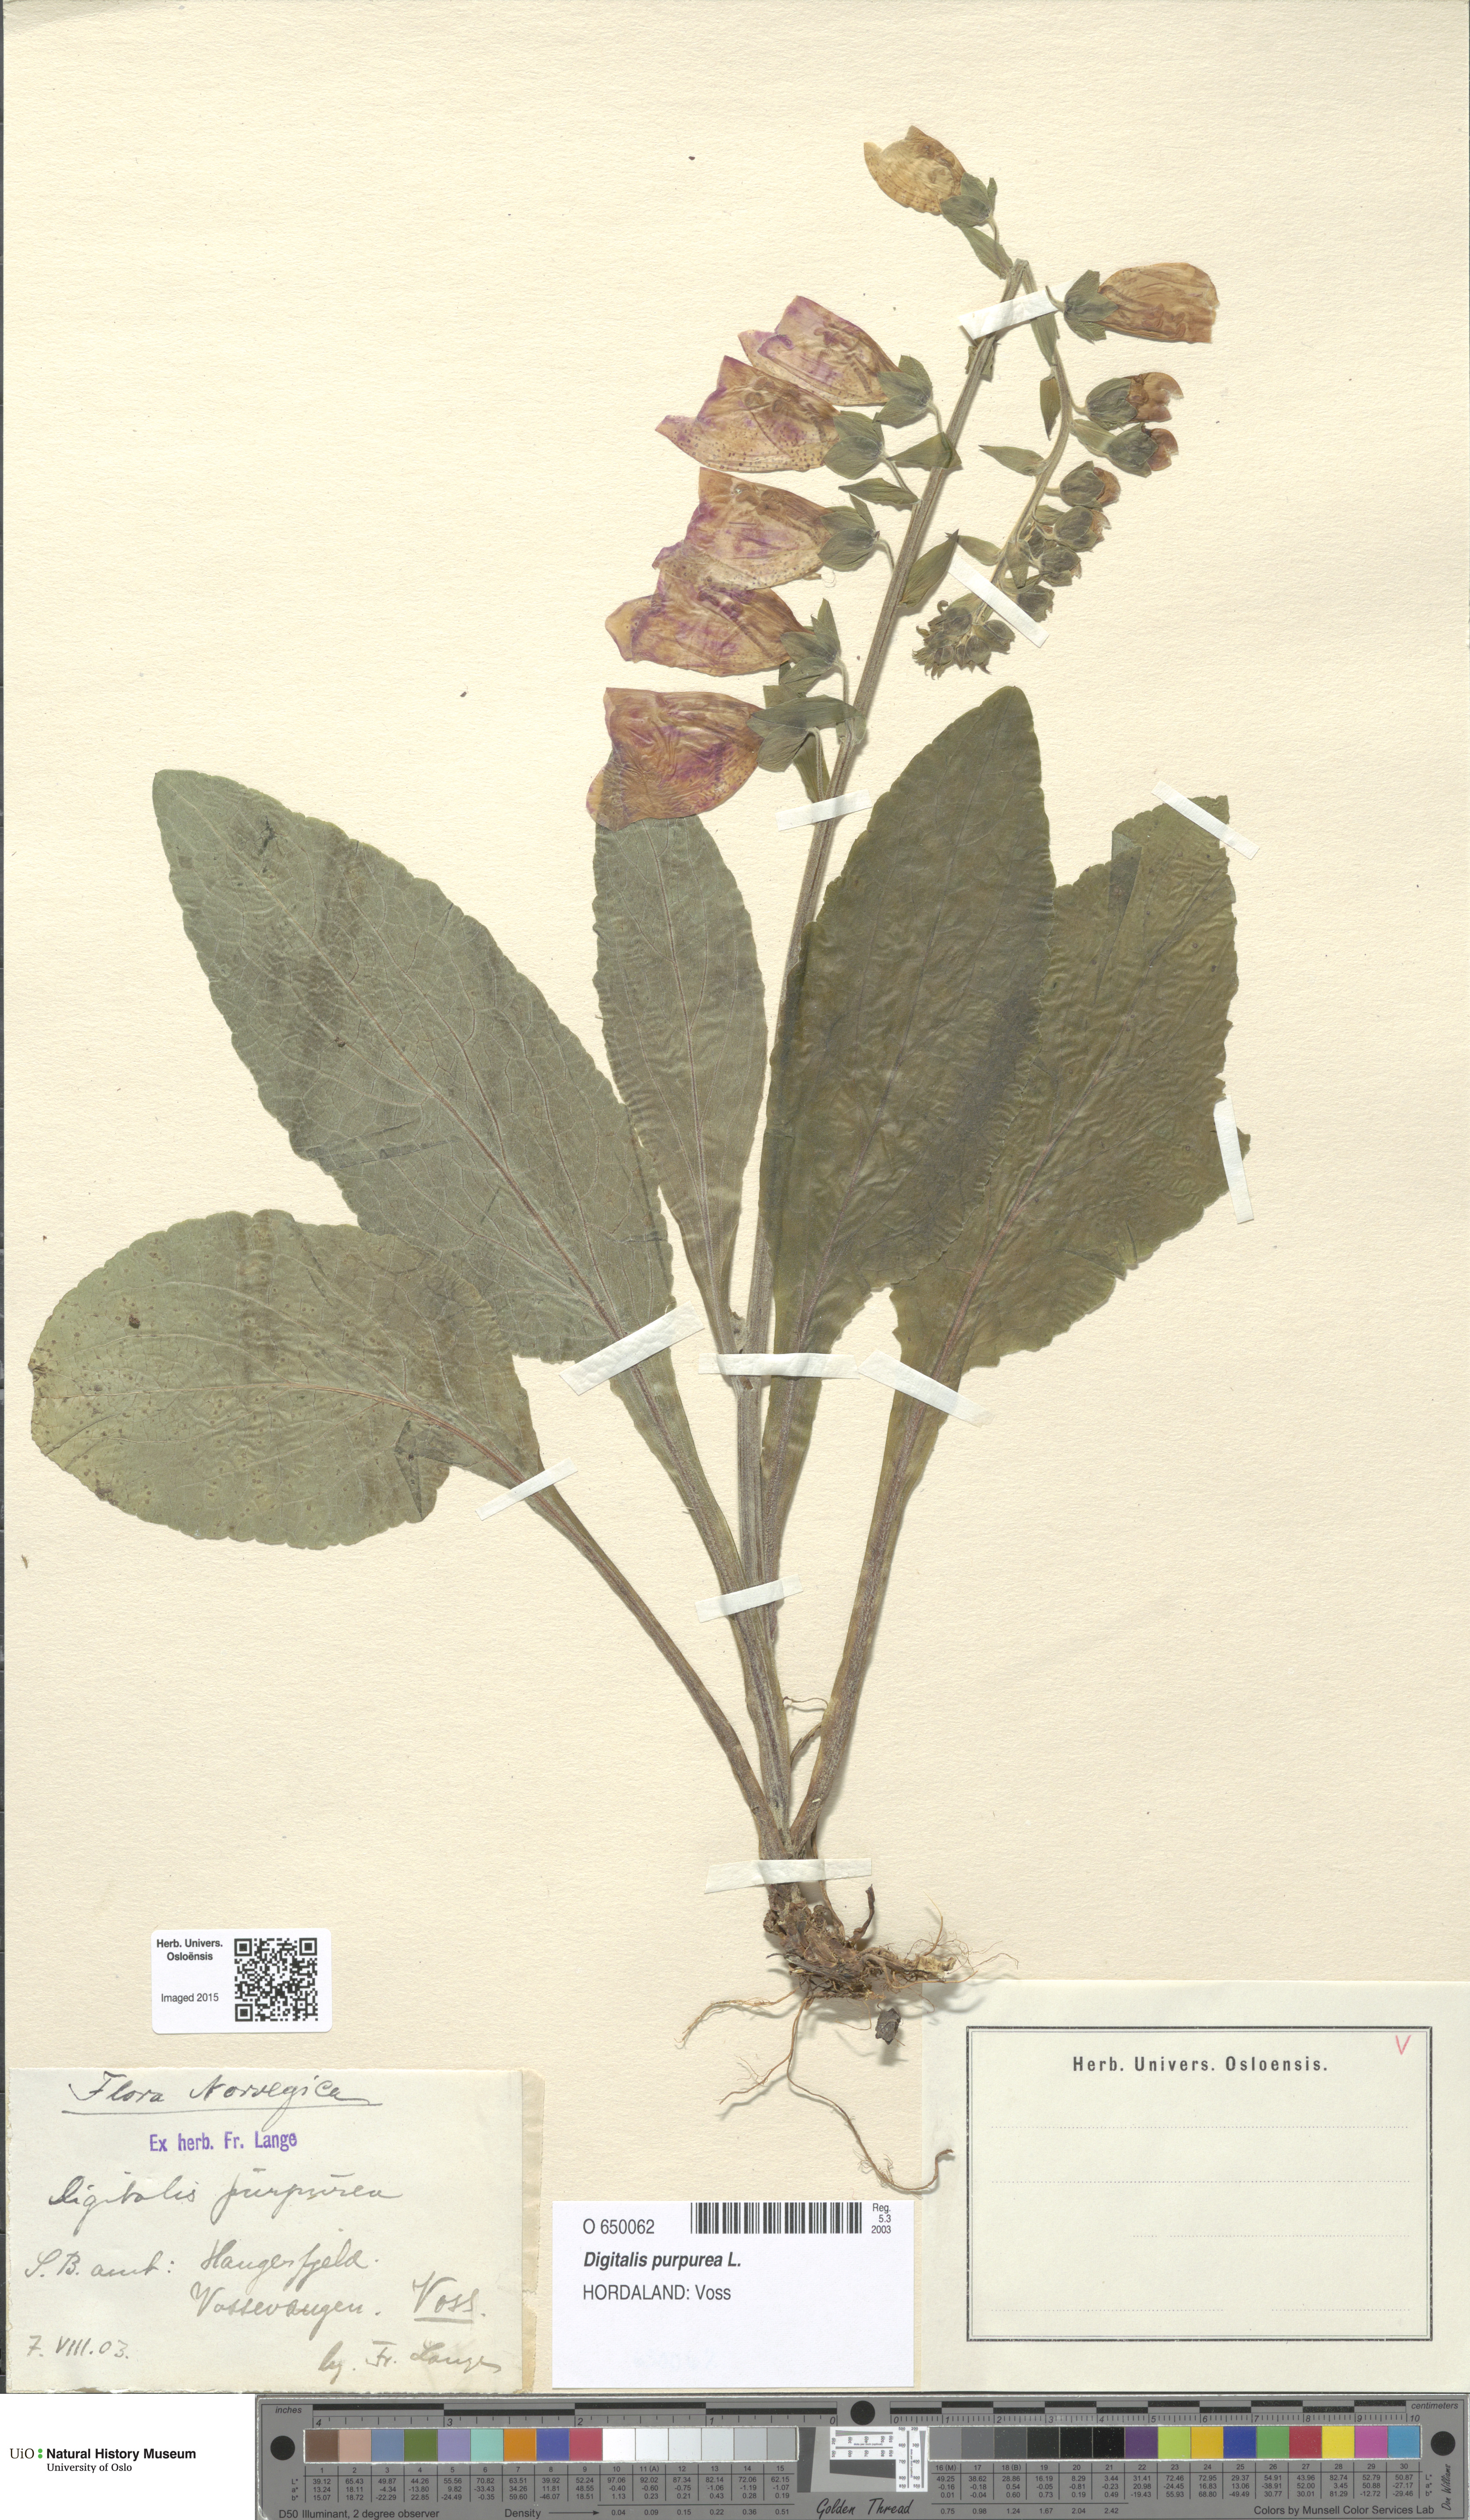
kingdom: Plantae
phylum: Tracheophyta
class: Magnoliopsida
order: Lamiales
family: Plantaginaceae
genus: Digitalis
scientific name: Digitalis purpurea
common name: Foxglove
